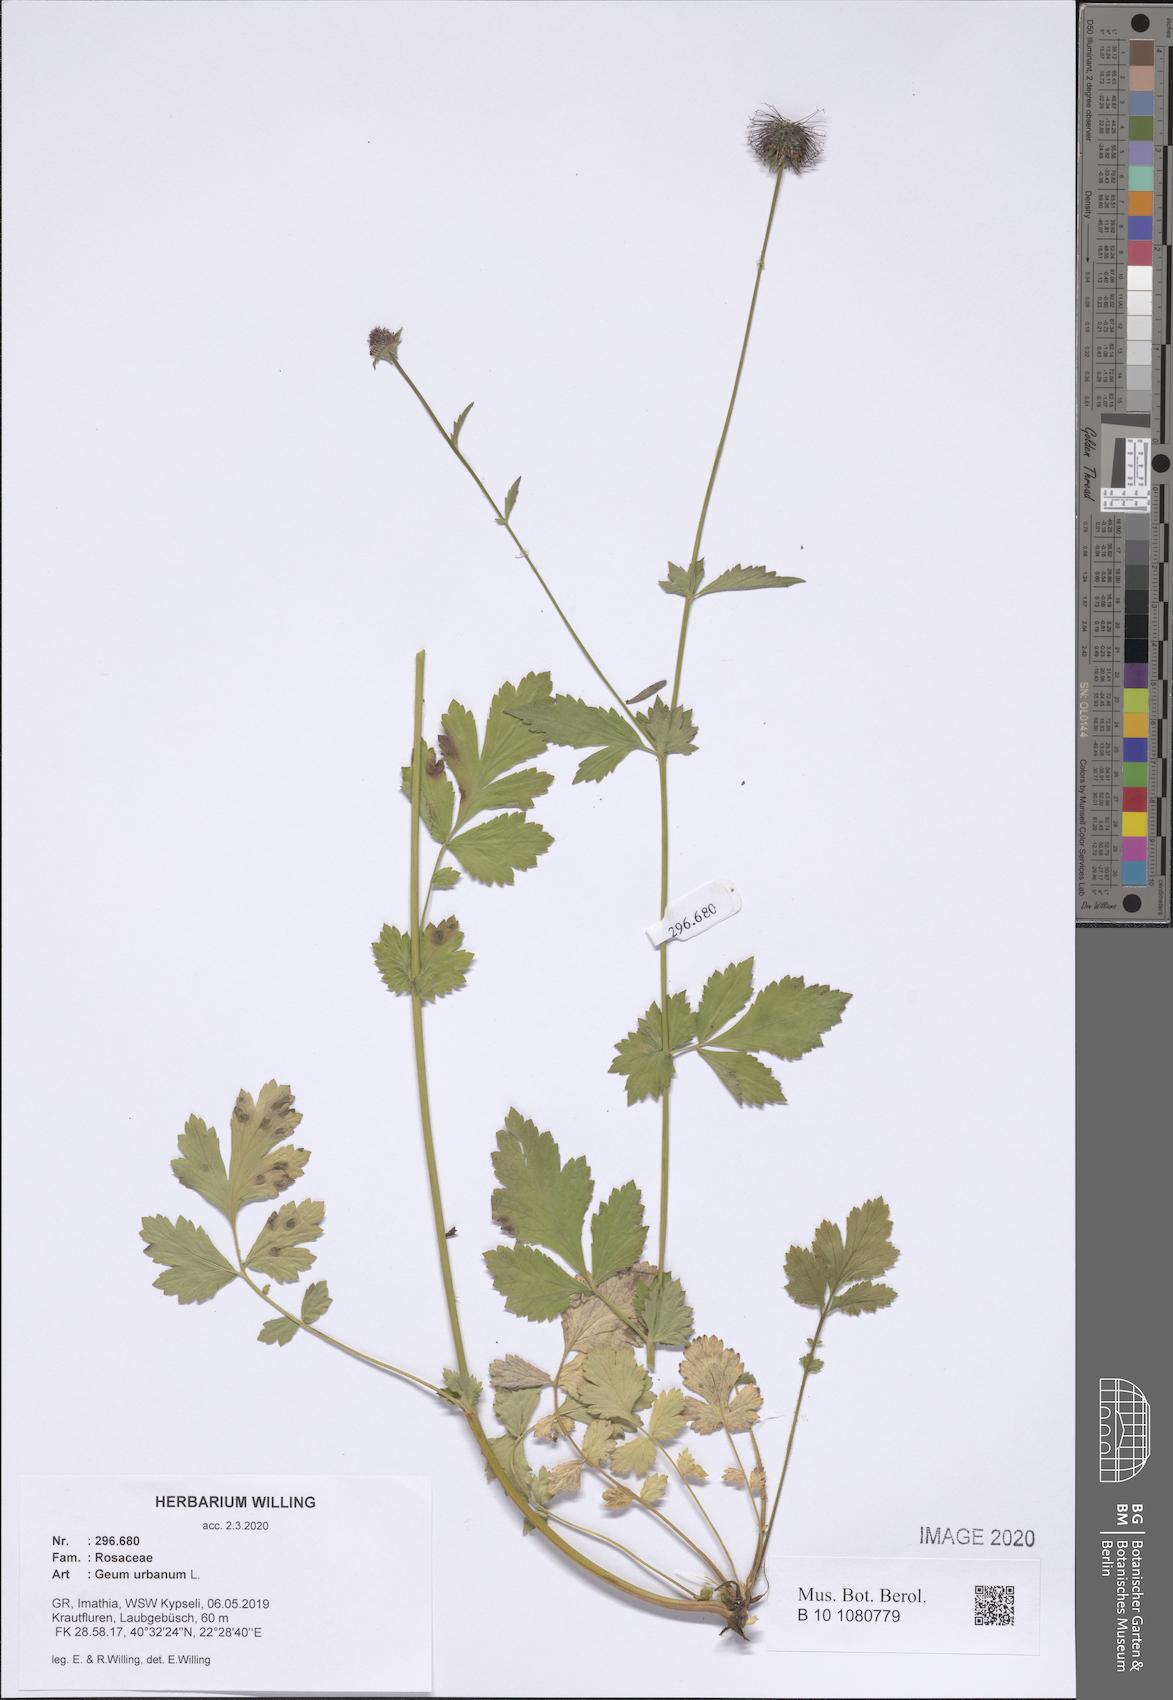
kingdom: Plantae
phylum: Tracheophyta
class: Magnoliopsida
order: Rosales
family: Rosaceae
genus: Geum
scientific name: Geum urbanum
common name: Wood avens
